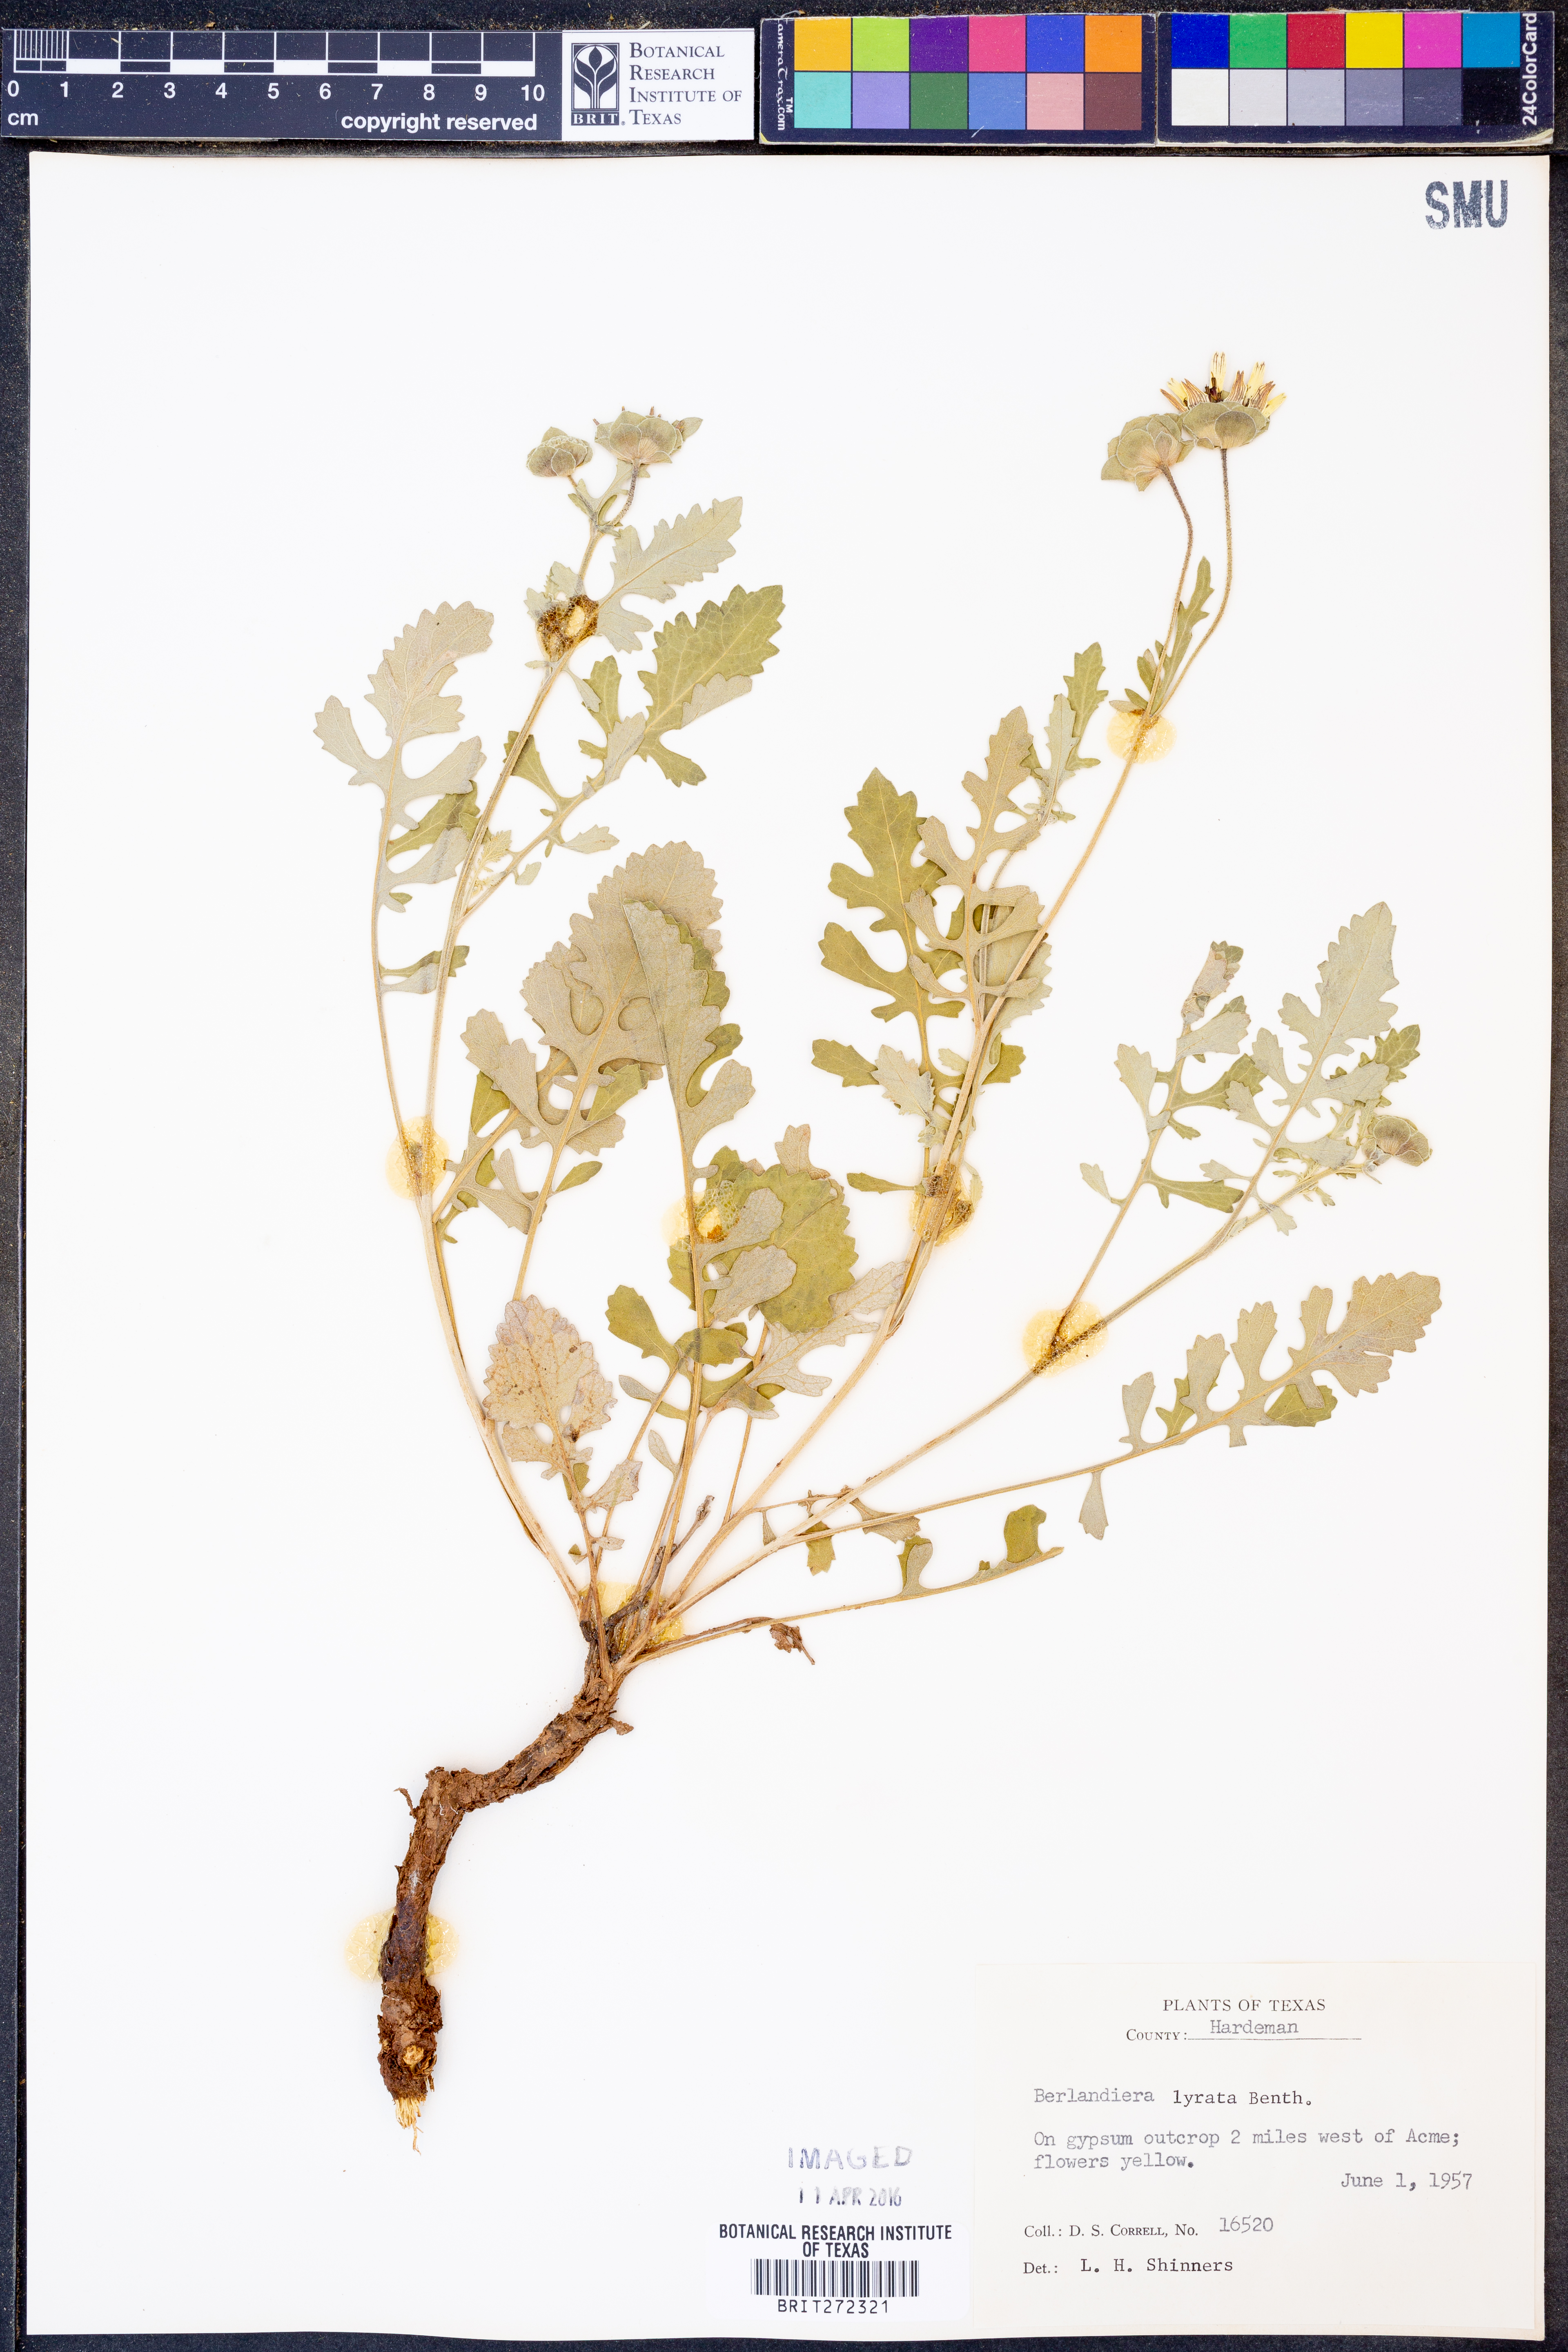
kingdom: Plantae
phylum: Tracheophyta
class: Magnoliopsida
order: Asterales
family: Asteraceae
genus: Berlandiera
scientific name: Berlandiera lyrata
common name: Chocolate-flower
